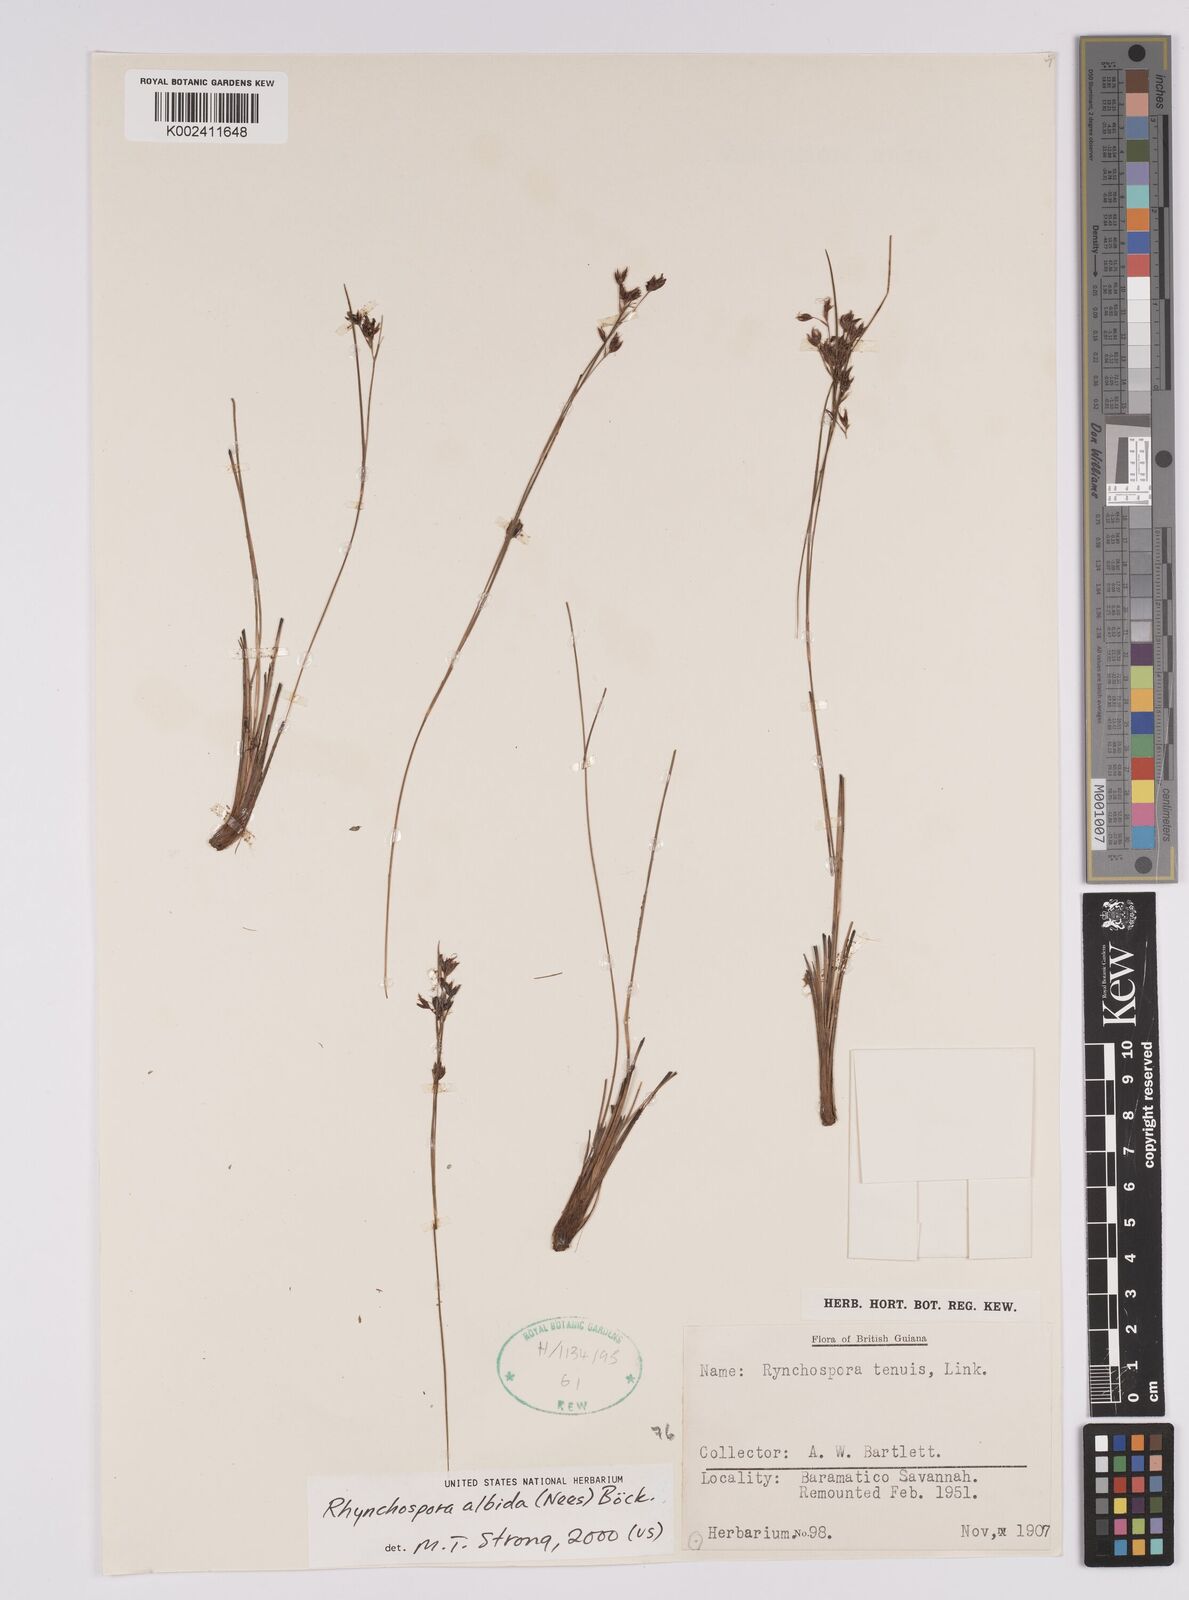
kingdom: Plantae
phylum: Tracheophyta
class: Liliopsida
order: Poales
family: Cyperaceae
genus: Rhynchospora
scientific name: Rhynchospora albida
